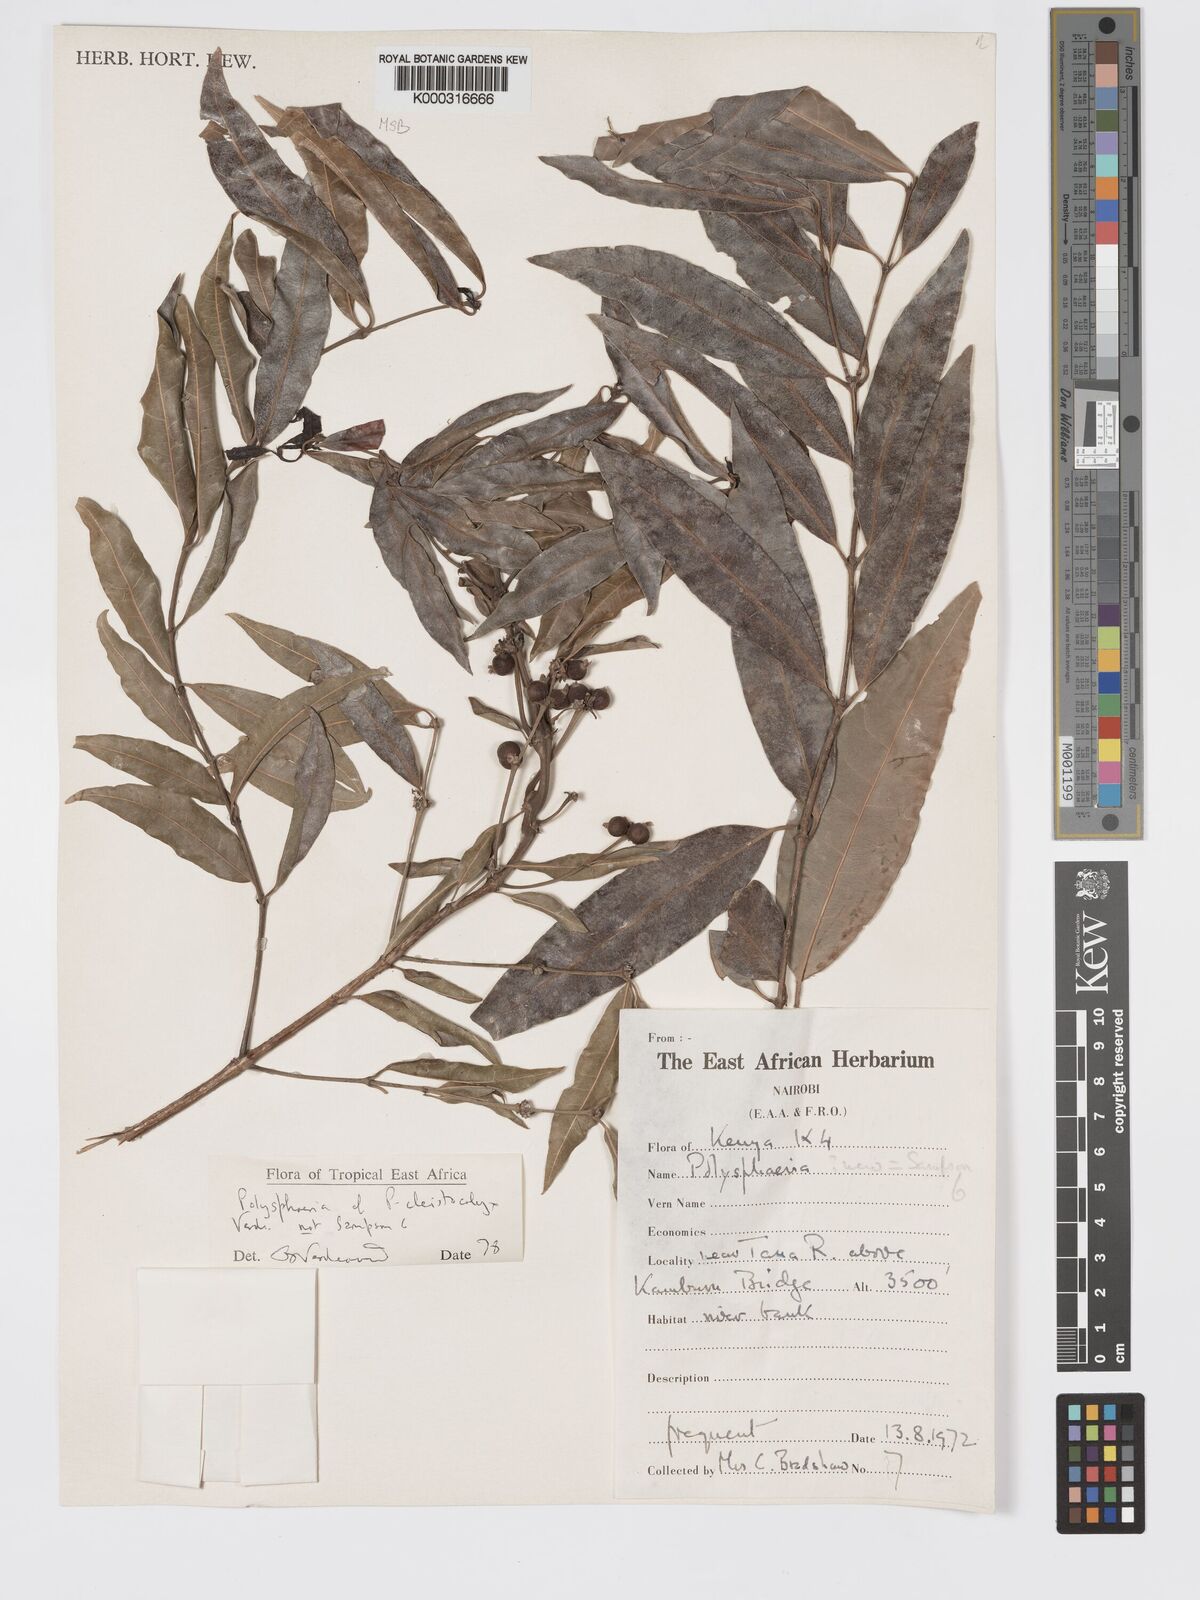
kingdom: Plantae
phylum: Tracheophyta
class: Magnoliopsida
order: Gentianales
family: Rubiaceae
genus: Polysphaeria
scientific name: Polysphaeria cleistocalyx
